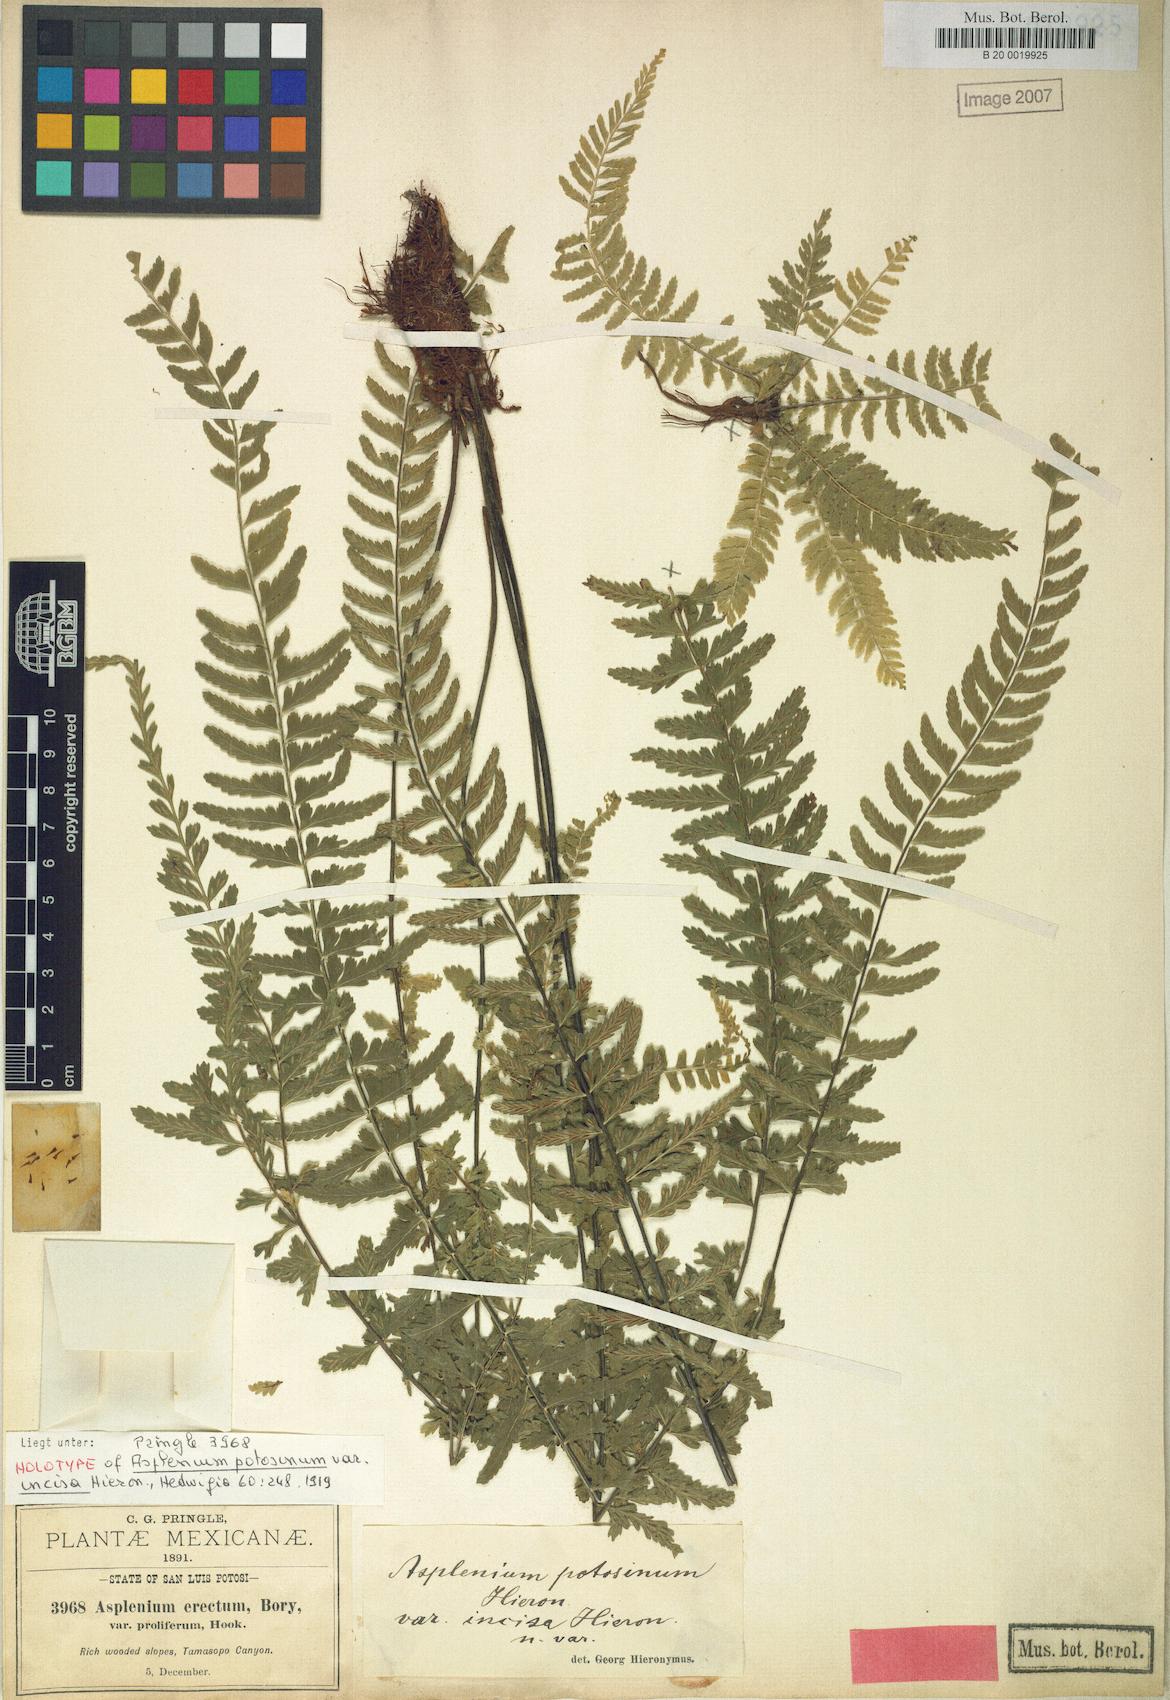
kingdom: Plantae
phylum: Tracheophyta
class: Polypodiopsida
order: Polypodiales
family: Aspleniaceae
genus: Asplenium
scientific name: Asplenium sessilifolium
